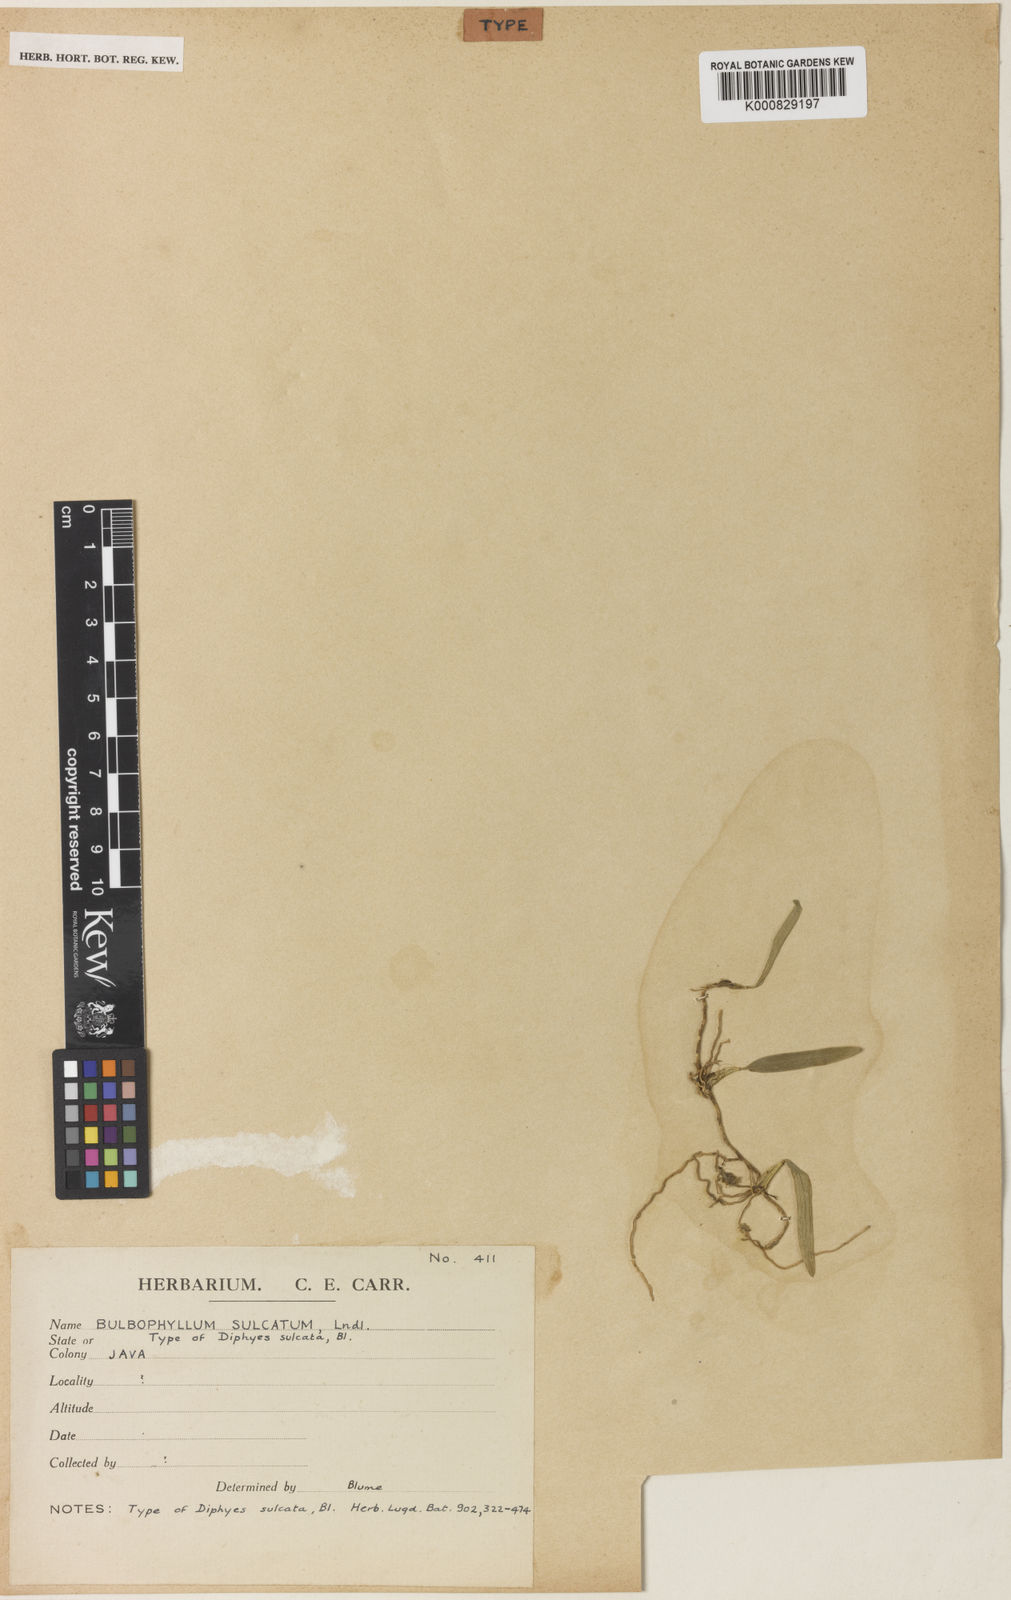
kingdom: Plantae
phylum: Tracheophyta
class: Liliopsida
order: Asparagales
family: Orchidaceae
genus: Bulbophyllum
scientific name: Bulbophyllum sulcatum
